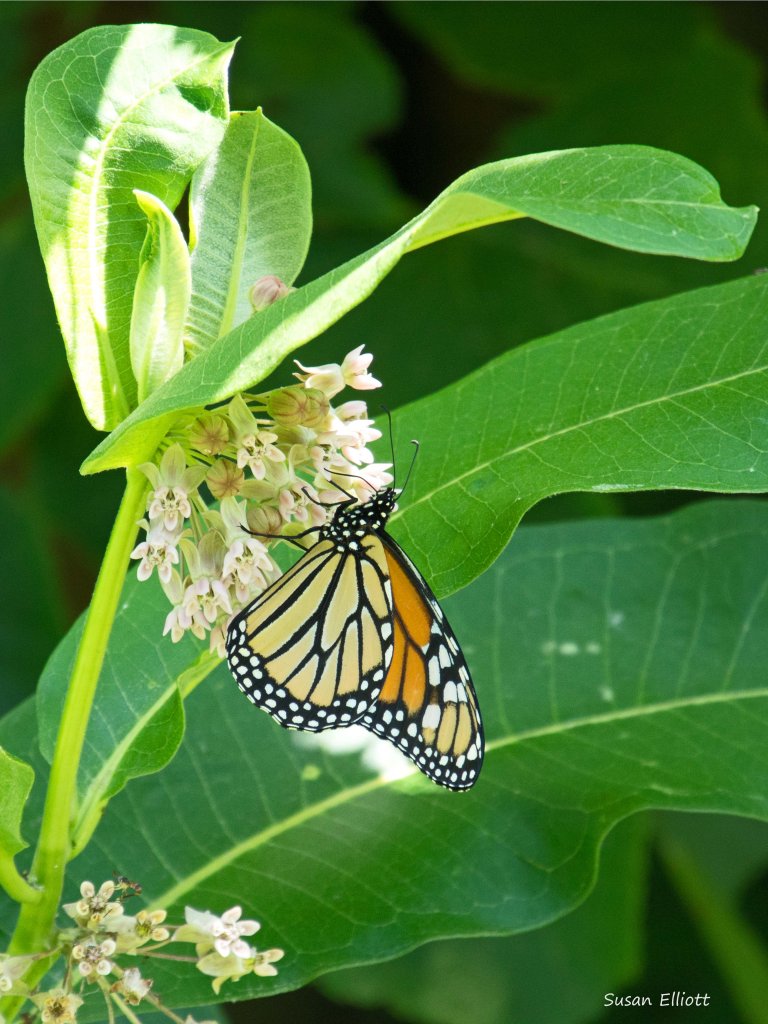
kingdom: Animalia
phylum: Arthropoda
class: Insecta
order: Lepidoptera
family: Nymphalidae
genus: Danaus
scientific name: Danaus plexippus
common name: Monarch
